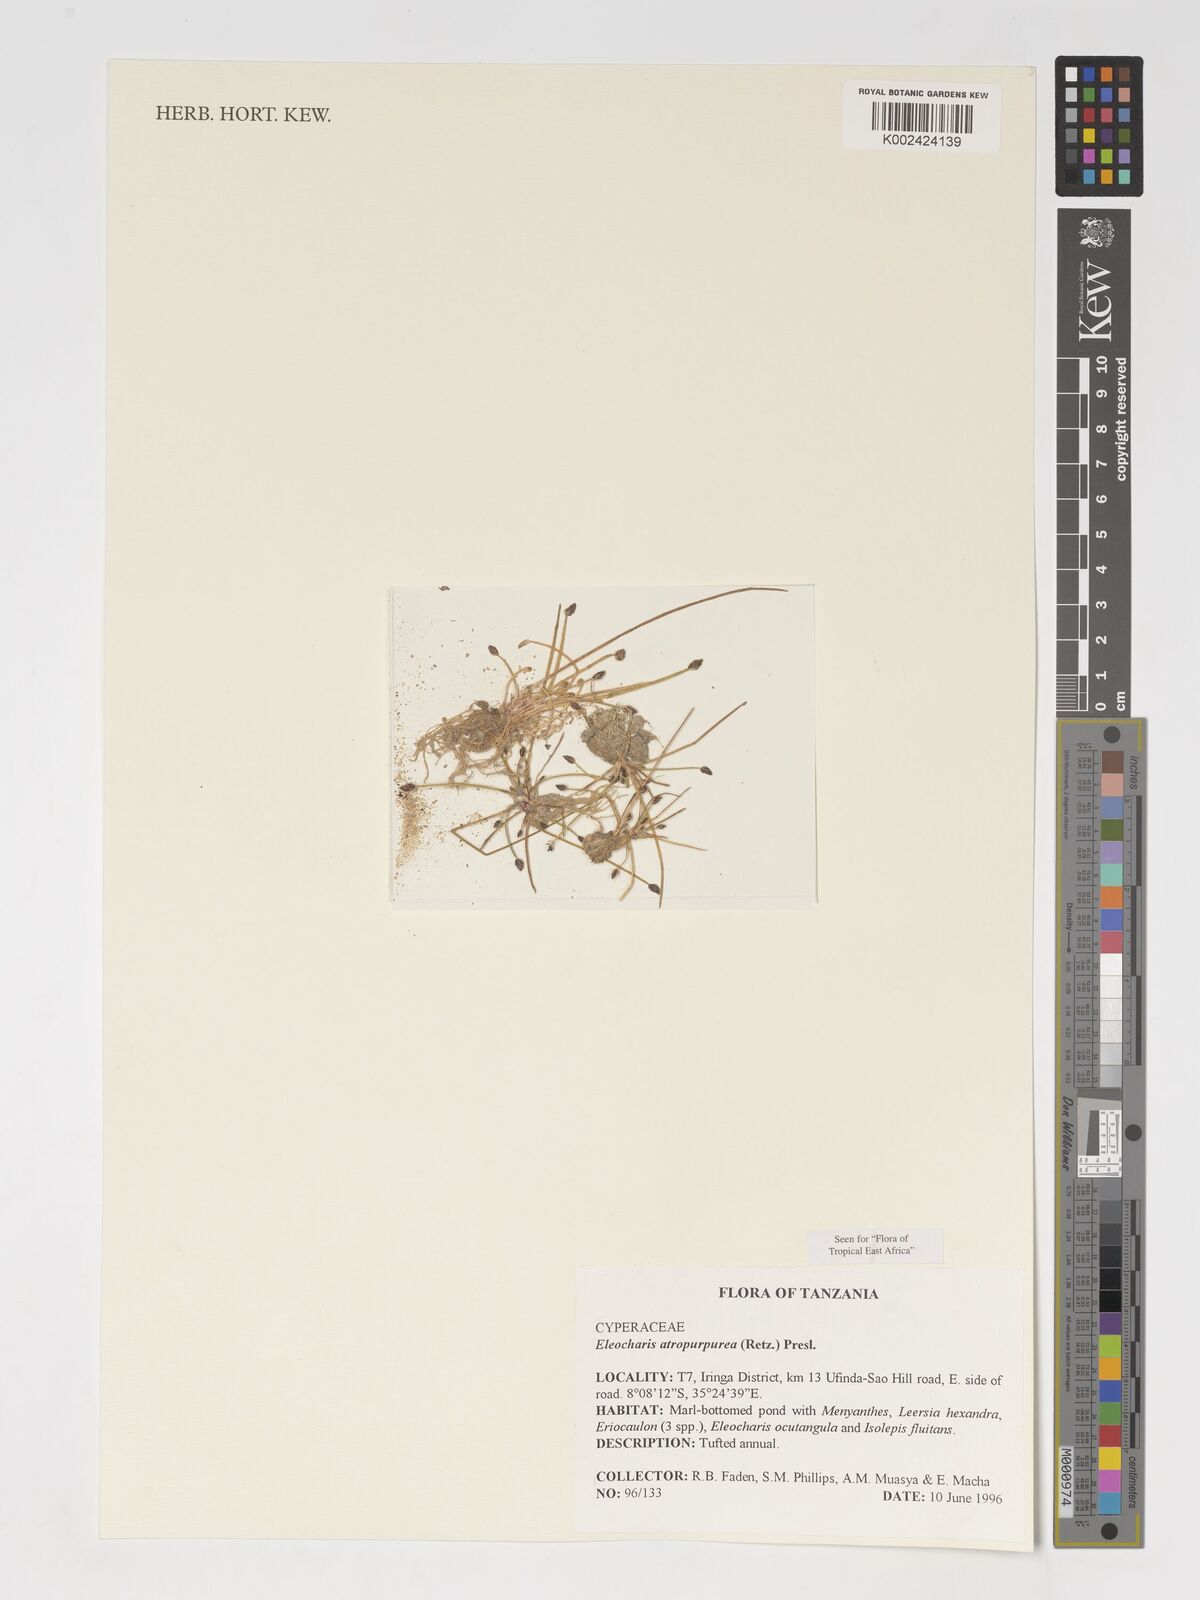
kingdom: Plantae
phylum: Tracheophyta
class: Liliopsida
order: Poales
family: Cyperaceae
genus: Eleocharis
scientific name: Eleocharis atropurpurea
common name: Purple spikerush
